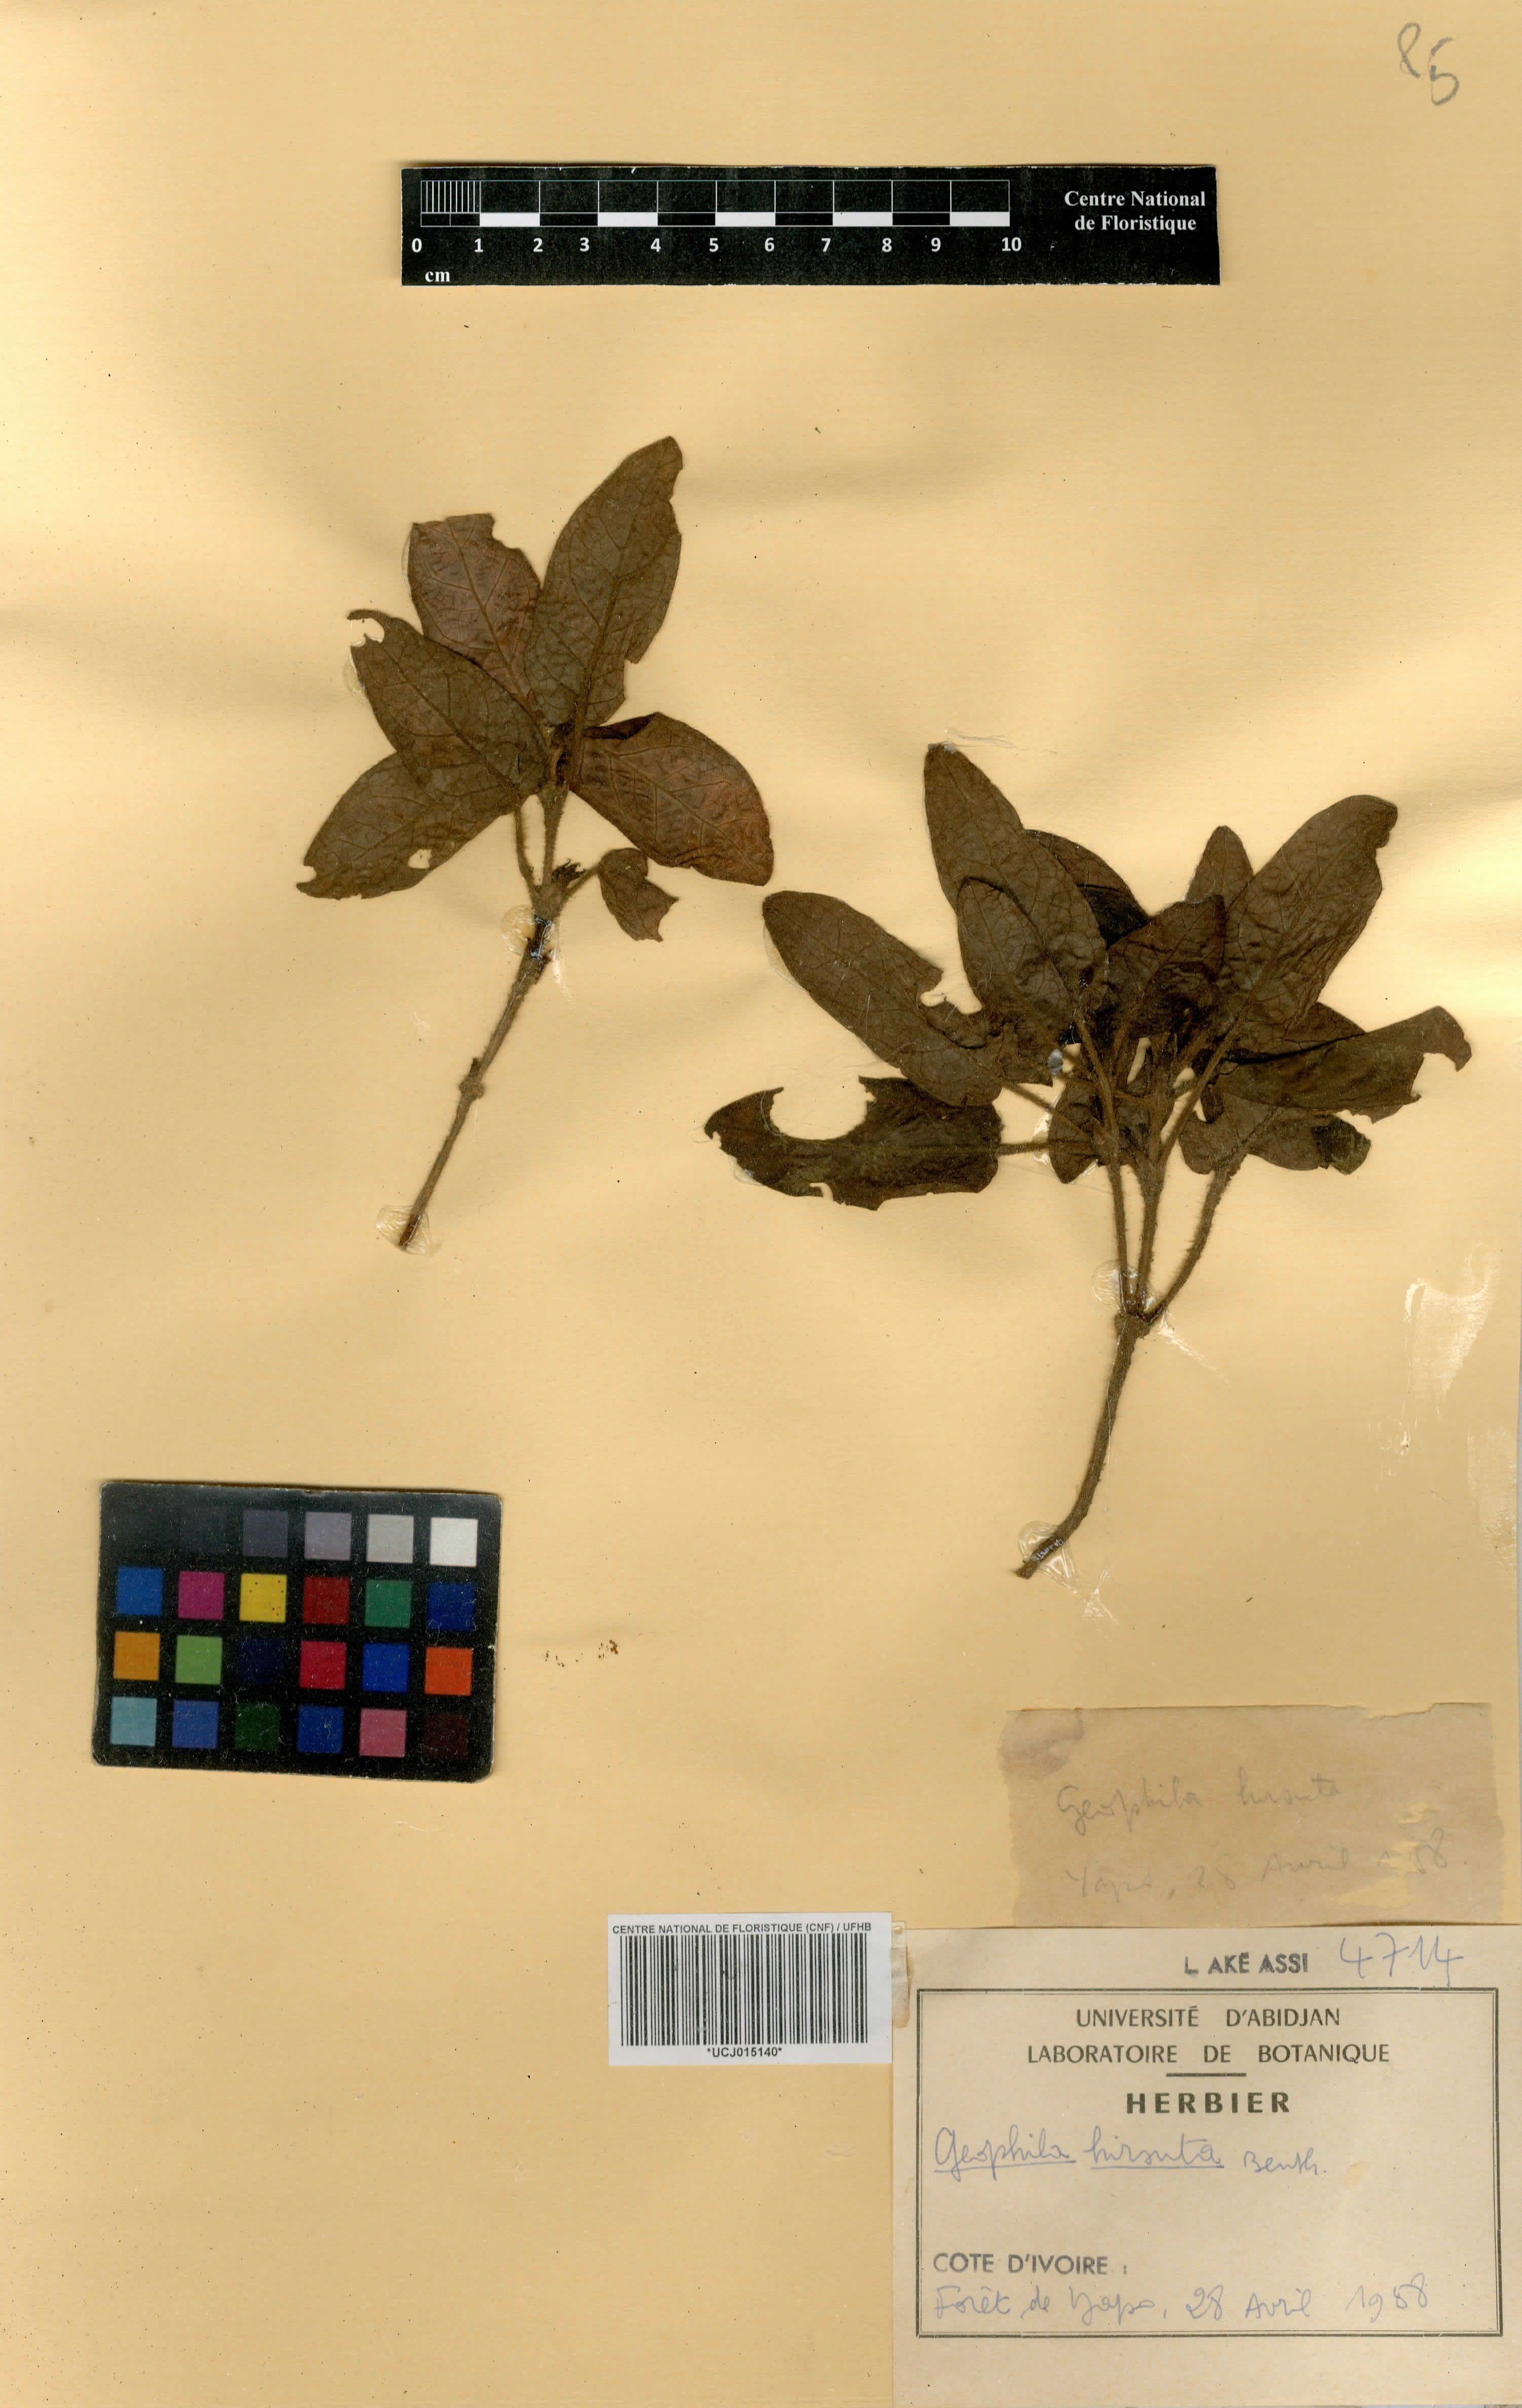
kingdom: Plantae
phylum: Tracheophyta
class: Magnoliopsida
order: Gentianales
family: Rubiaceae
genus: Hymenocoleus
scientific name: Hymenocoleus hirsutus
